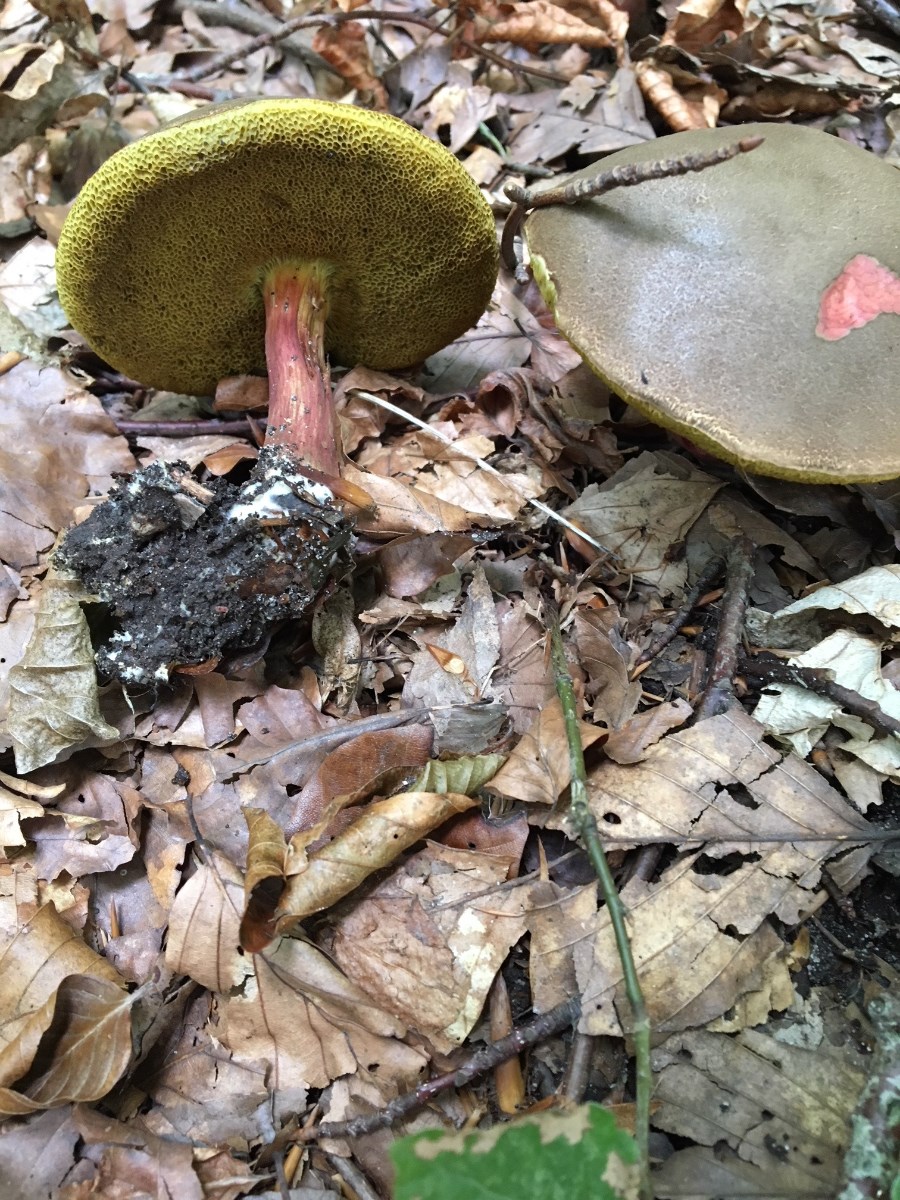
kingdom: Fungi
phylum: Basidiomycota
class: Agaricomycetes
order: Boletales
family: Boletaceae
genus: Xerocomellus
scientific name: Xerocomellus
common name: dværgrørhat
